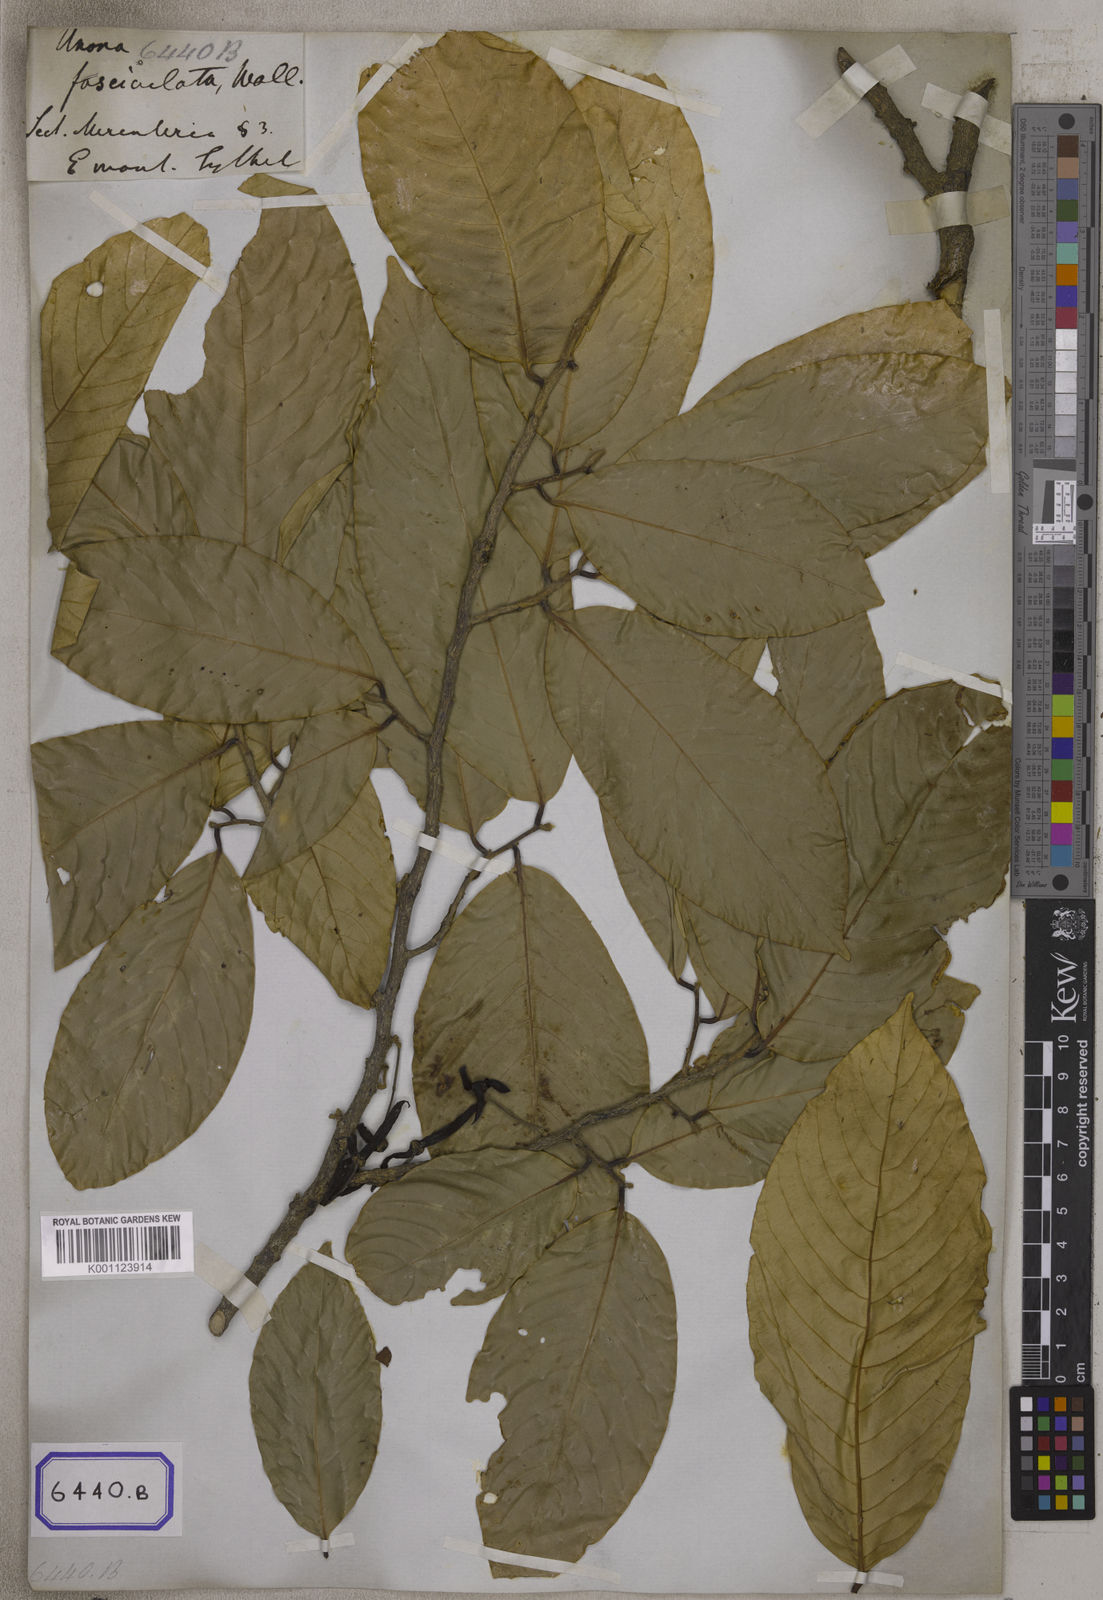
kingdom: Plantae
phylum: Tracheophyta
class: Magnoliopsida
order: Magnoliales
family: Annonaceae
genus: Guatteria
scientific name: Guatteria
